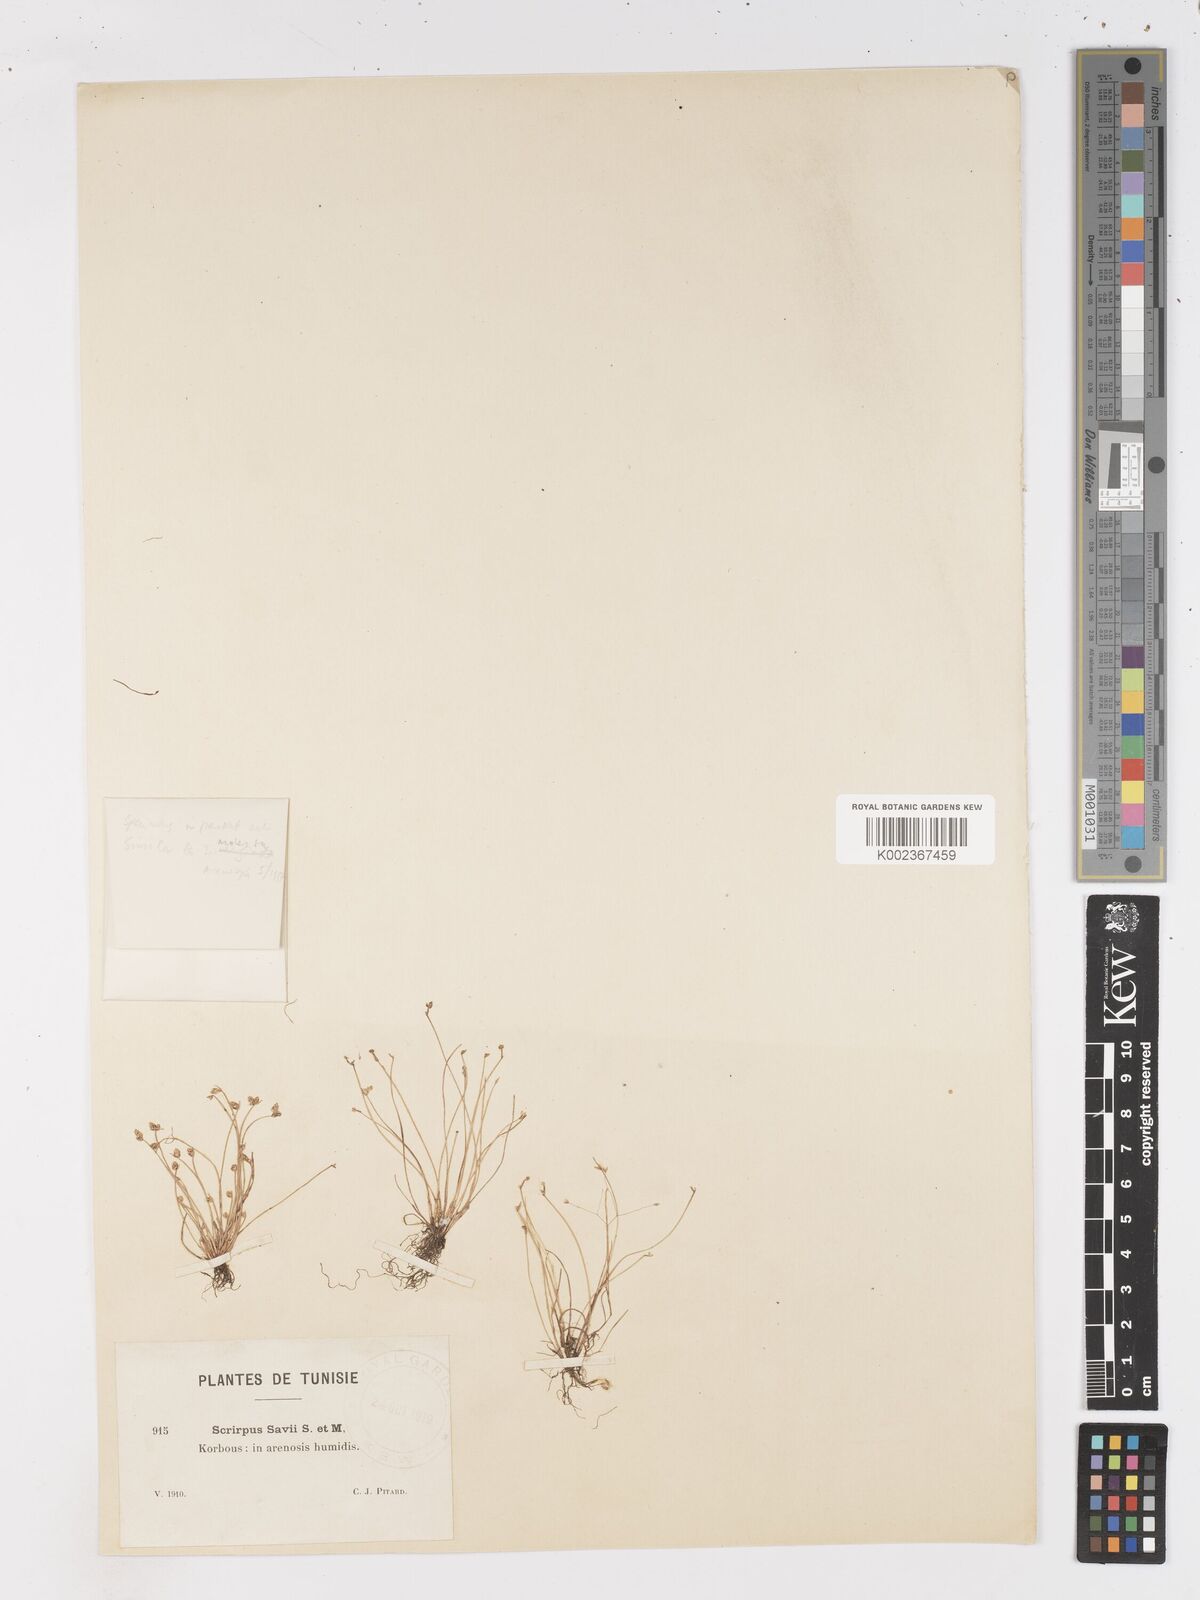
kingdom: Plantae
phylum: Tracheophyta
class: Liliopsida
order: Poales
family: Cyperaceae
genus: Isolepis
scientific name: Isolepis cernua
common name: Slender club-rush
